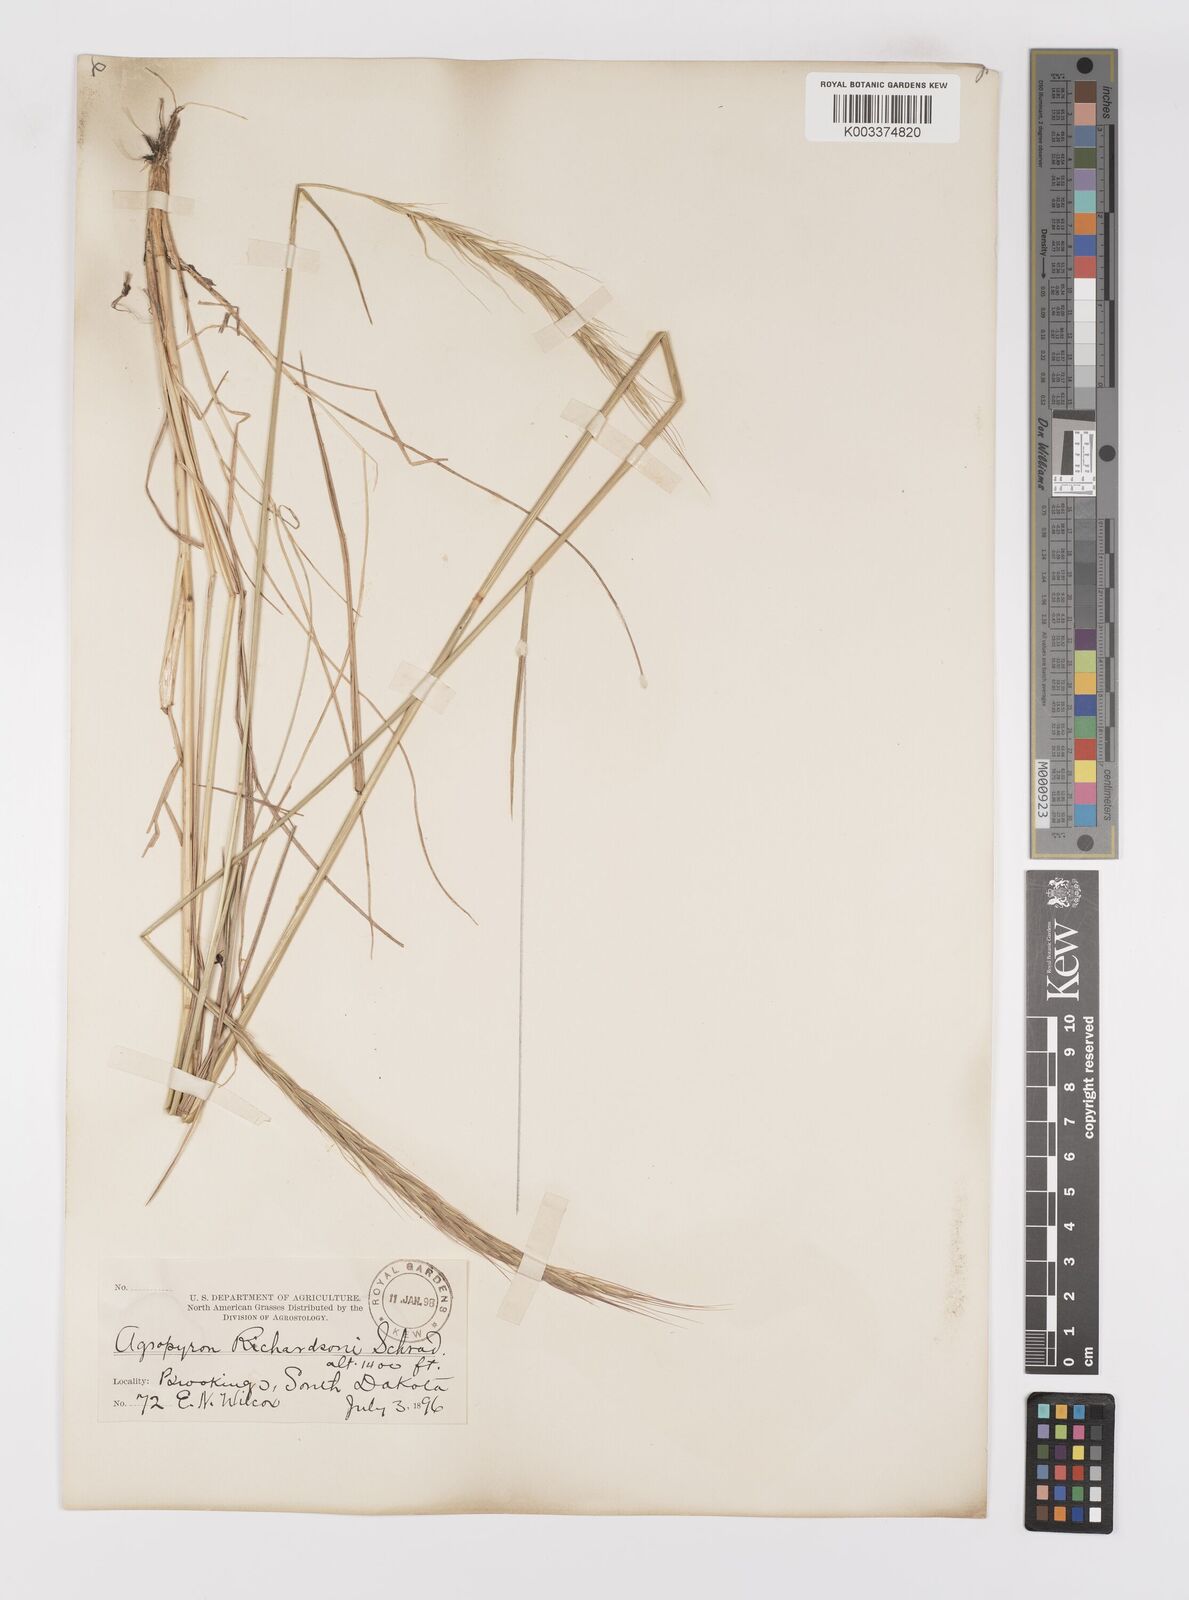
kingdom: Plantae
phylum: Tracheophyta
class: Liliopsida
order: Poales
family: Poaceae
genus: Elymus
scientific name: Elymus violaceus
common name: Arctic wheatgrass
